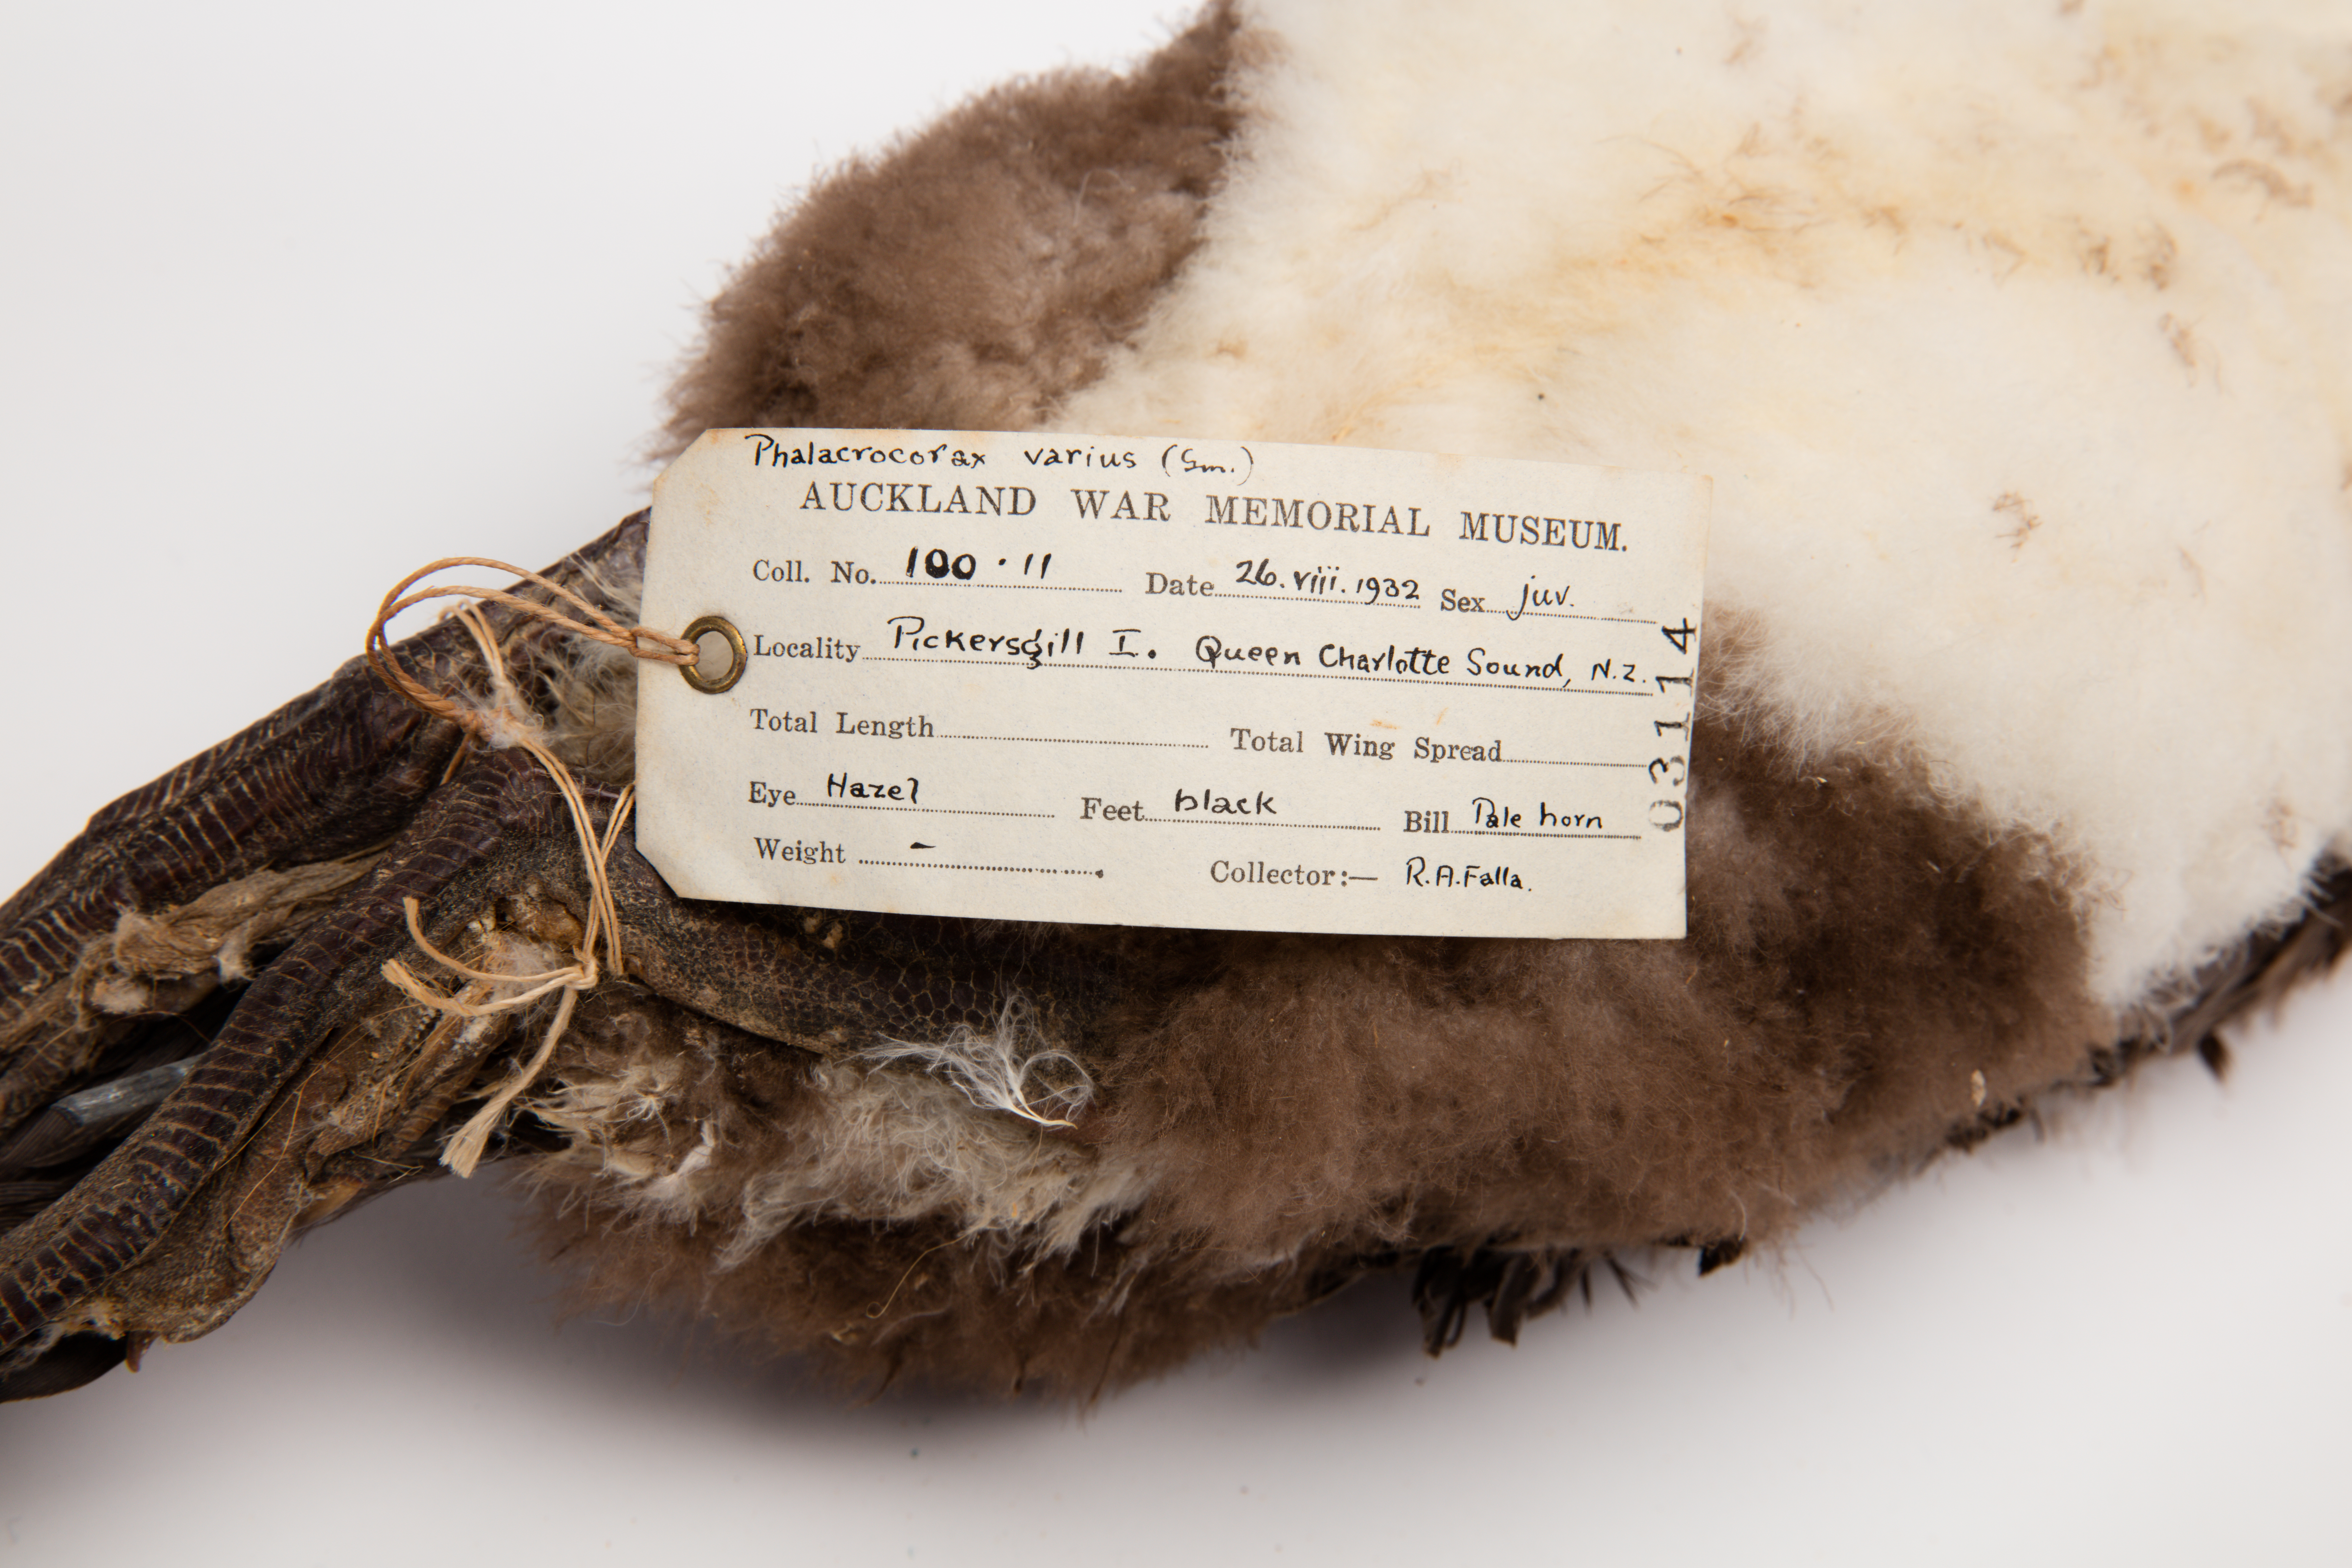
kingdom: Animalia
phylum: Chordata
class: Aves
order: Suliformes
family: Phalacrocoracidae
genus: Phalacrocorax
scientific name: Phalacrocorax varius
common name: Pied cormorant
